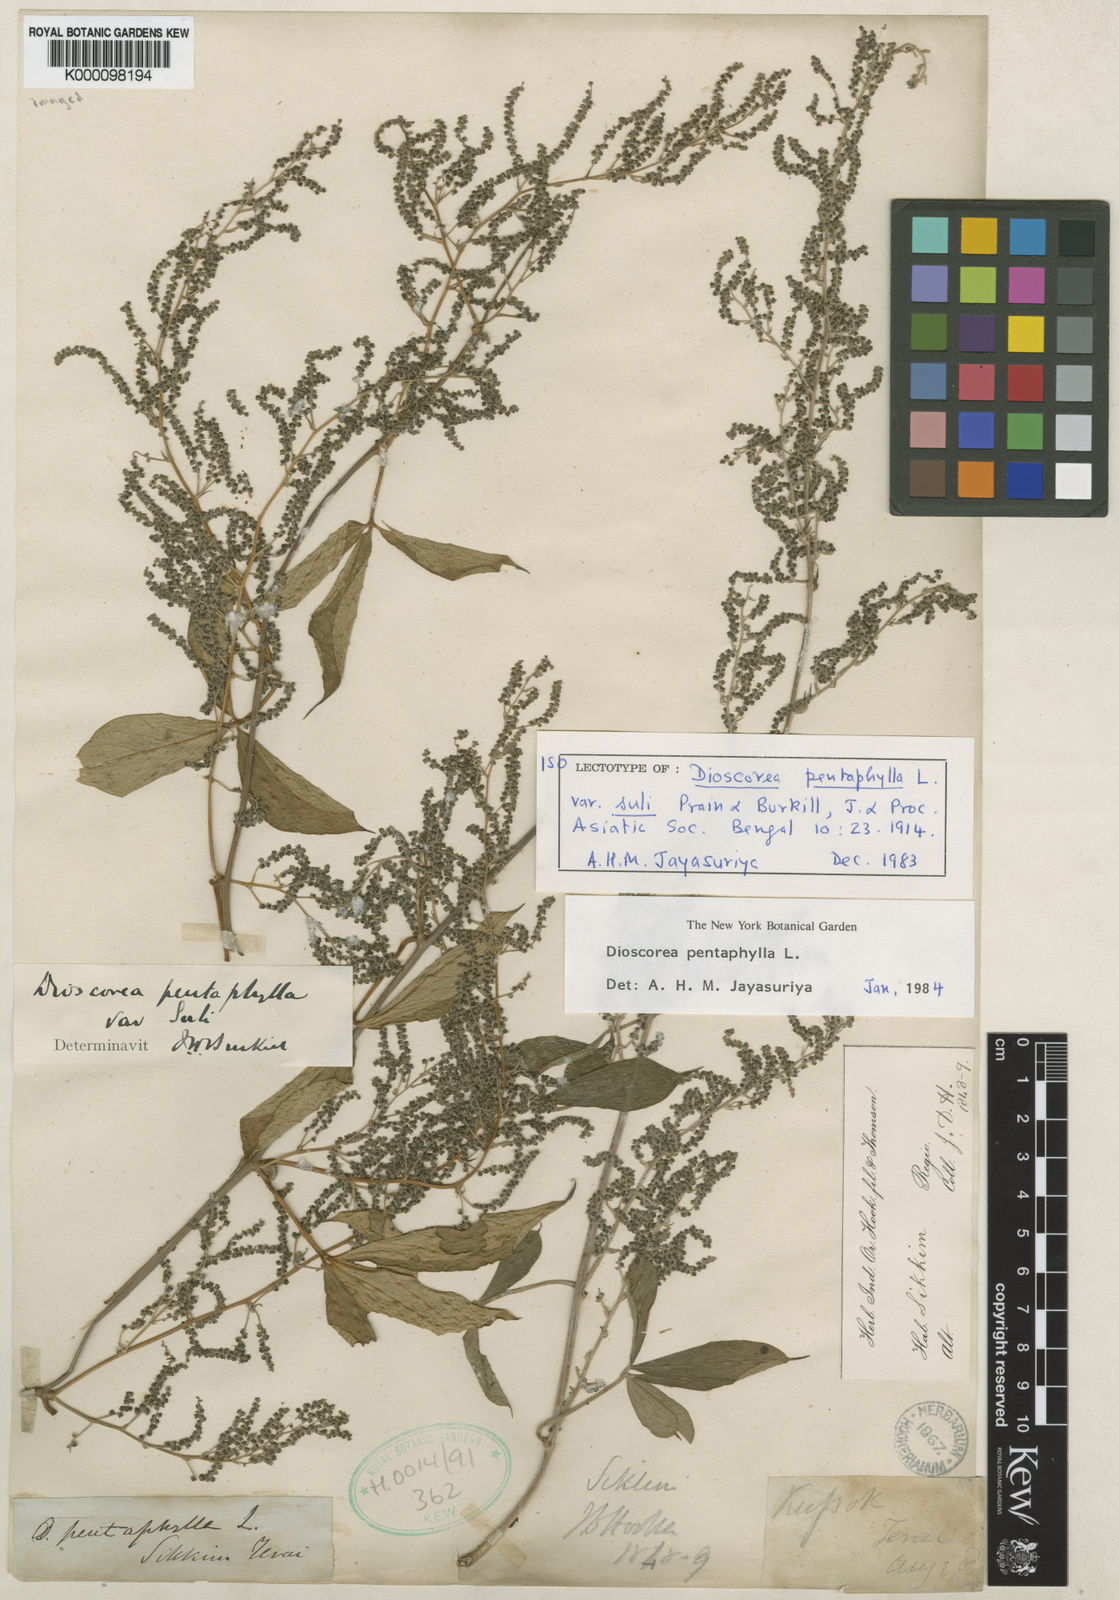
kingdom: Plantae
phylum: Tracheophyta
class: Liliopsida
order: Dioscoreales
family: Dioscoreaceae
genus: Dioscorea
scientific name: Dioscorea pentaphylla
